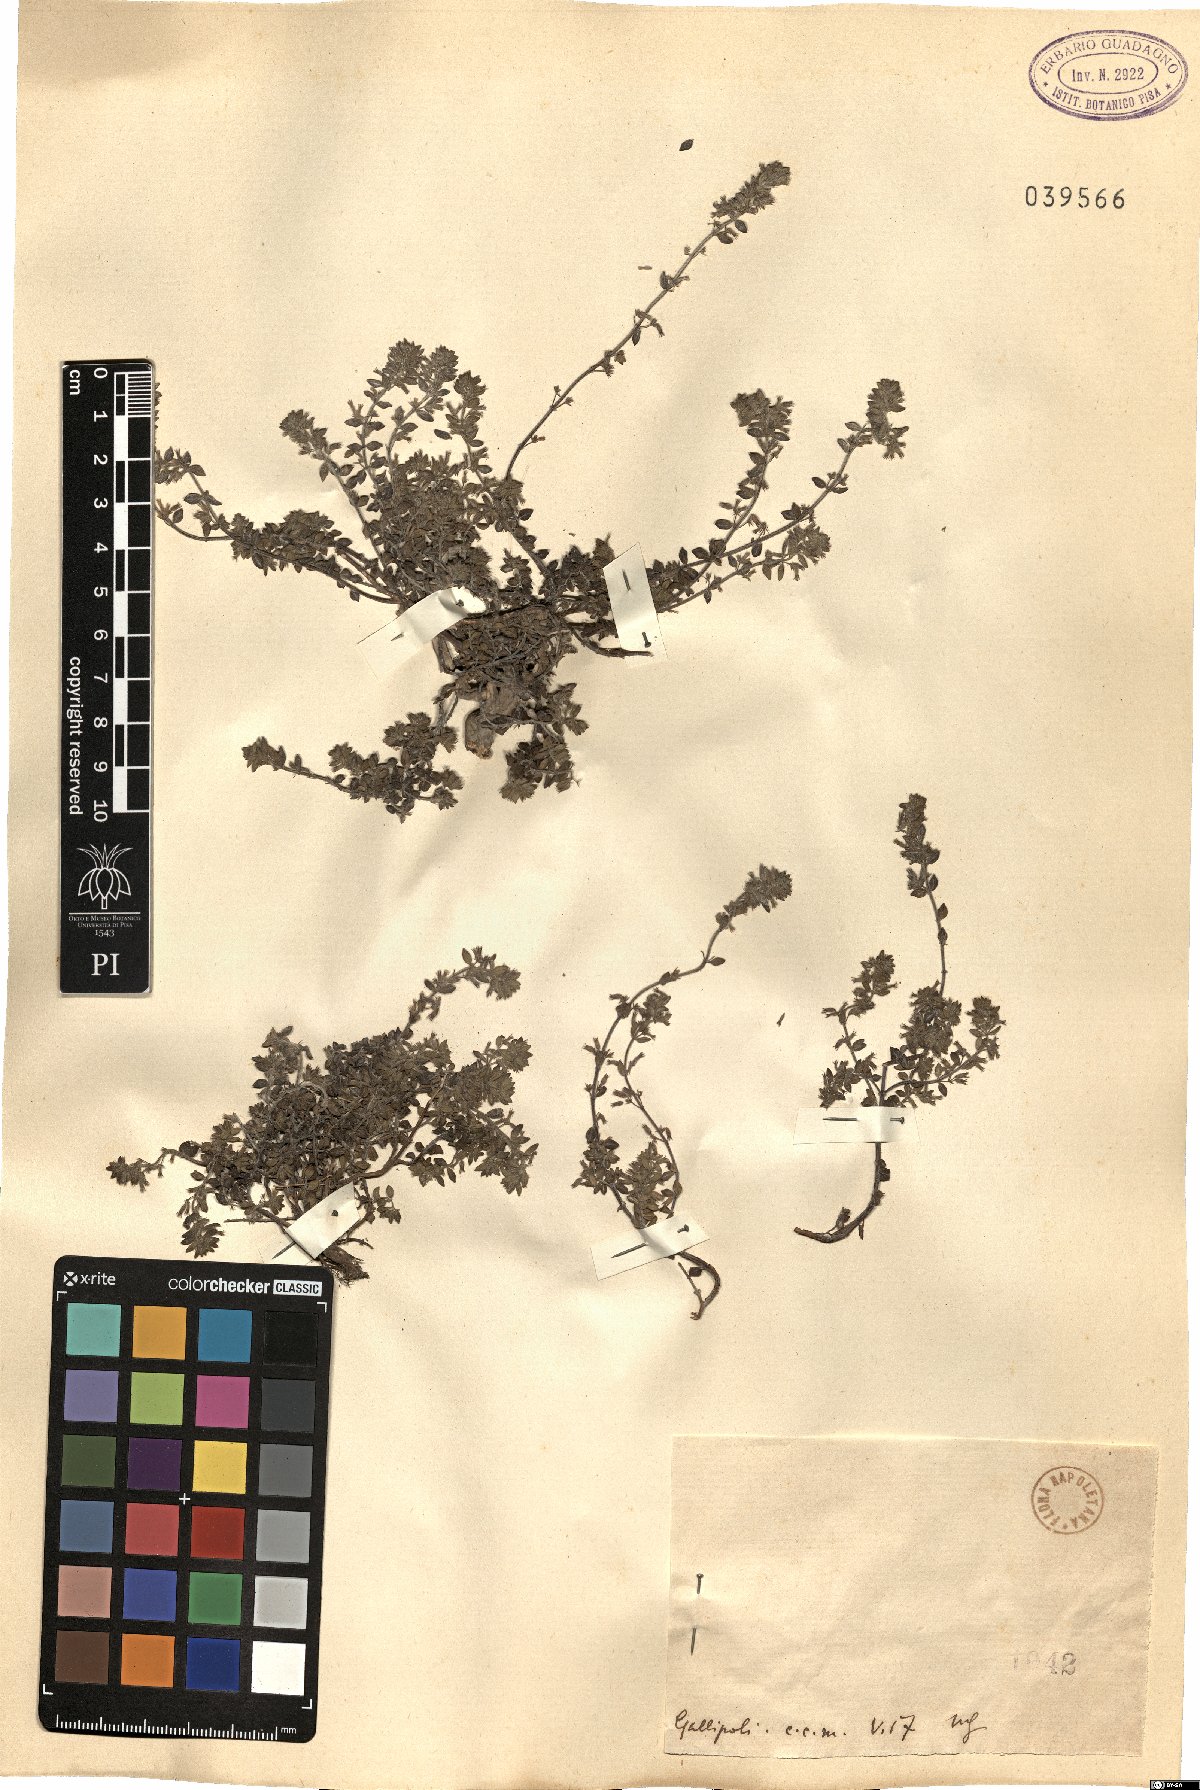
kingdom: Plantae
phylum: Tracheophyta
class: Magnoliopsida
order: Lamiales
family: Lamiaceae
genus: Micromeria
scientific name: Micromeria
